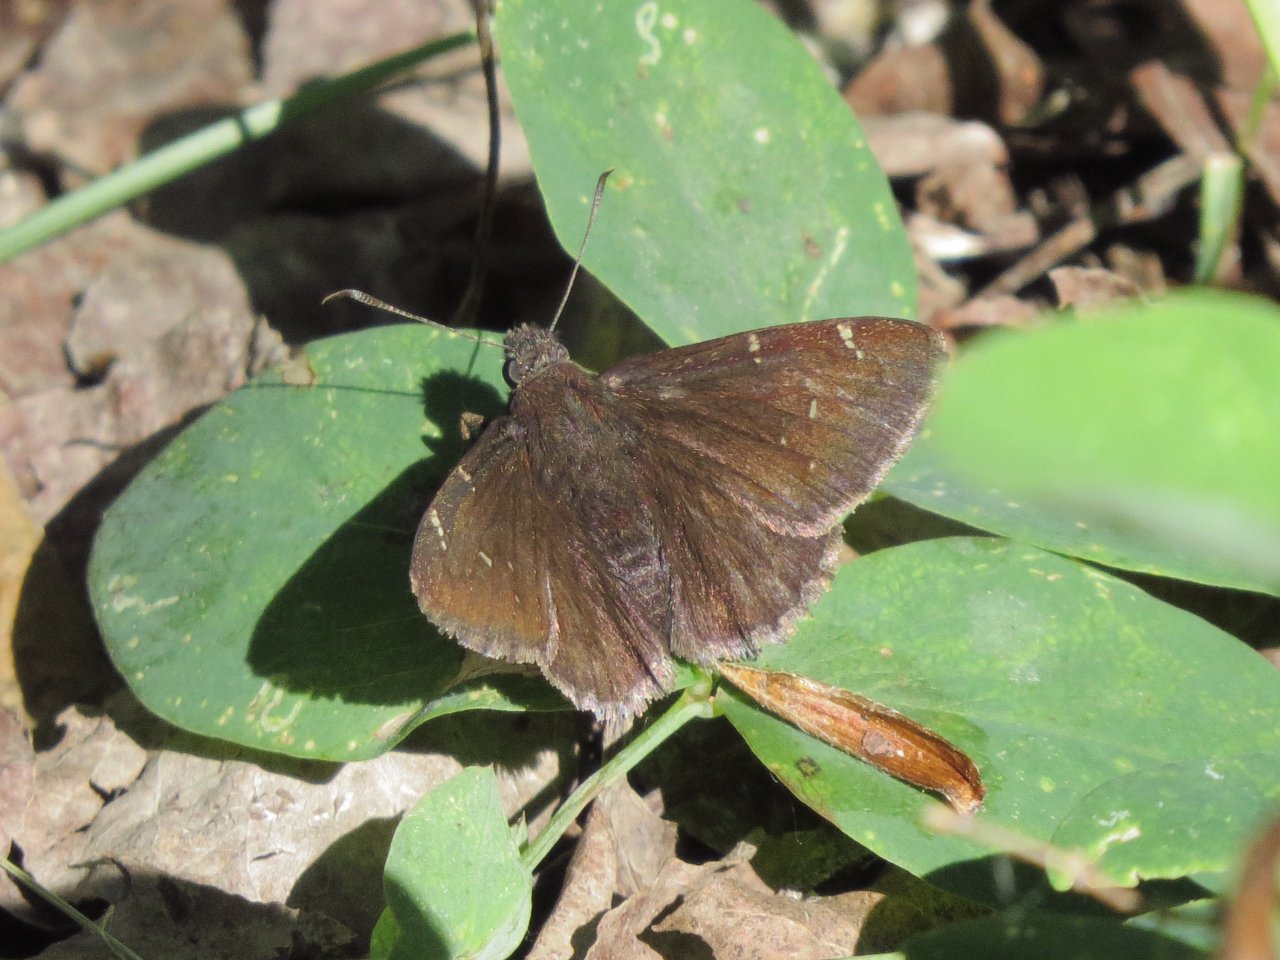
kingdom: Animalia
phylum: Arthropoda
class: Insecta
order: Lepidoptera
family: Hesperiidae
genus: Autochton
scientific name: Autochton
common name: Northern Cloudywing
